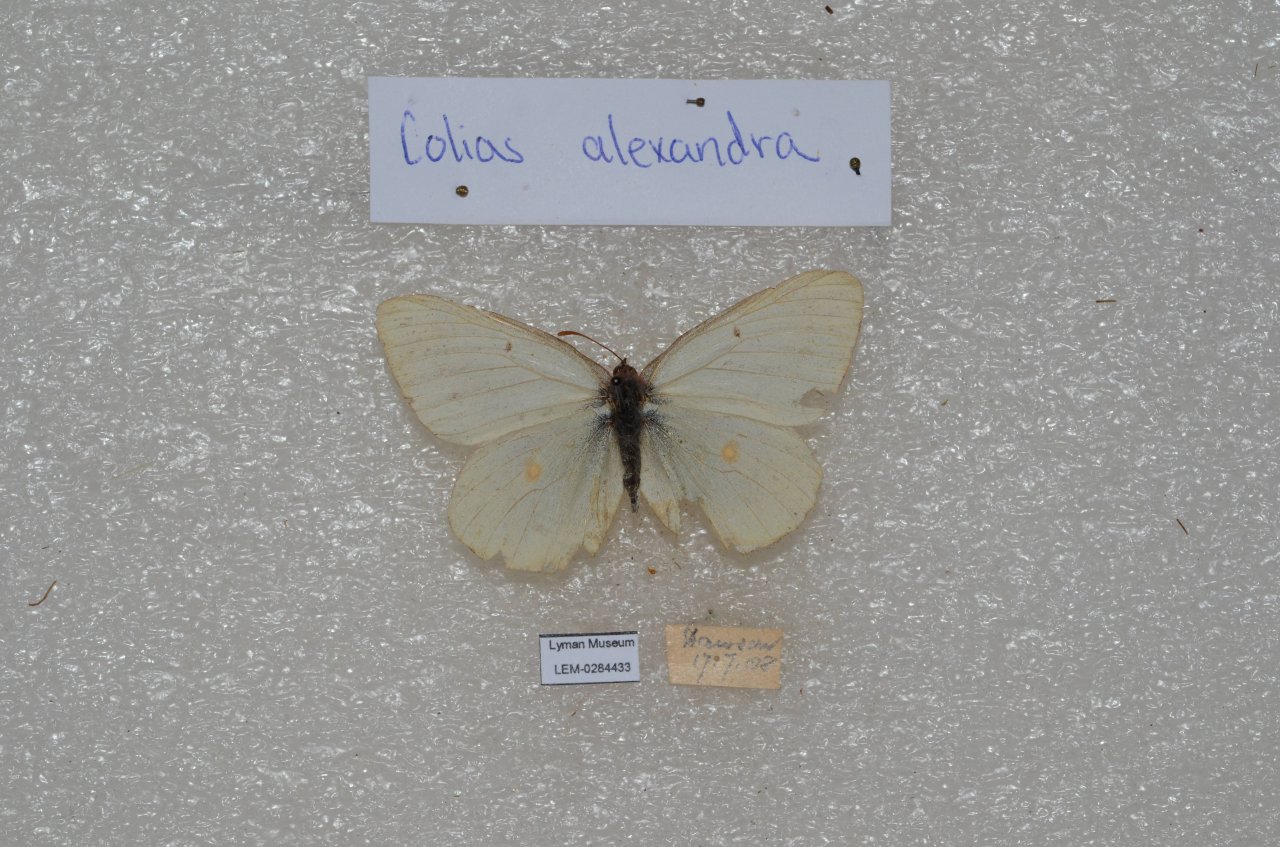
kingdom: Animalia
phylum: Arthropoda
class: Insecta
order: Lepidoptera
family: Pieridae
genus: Colias
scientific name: Colias
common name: Clouded Yellows
